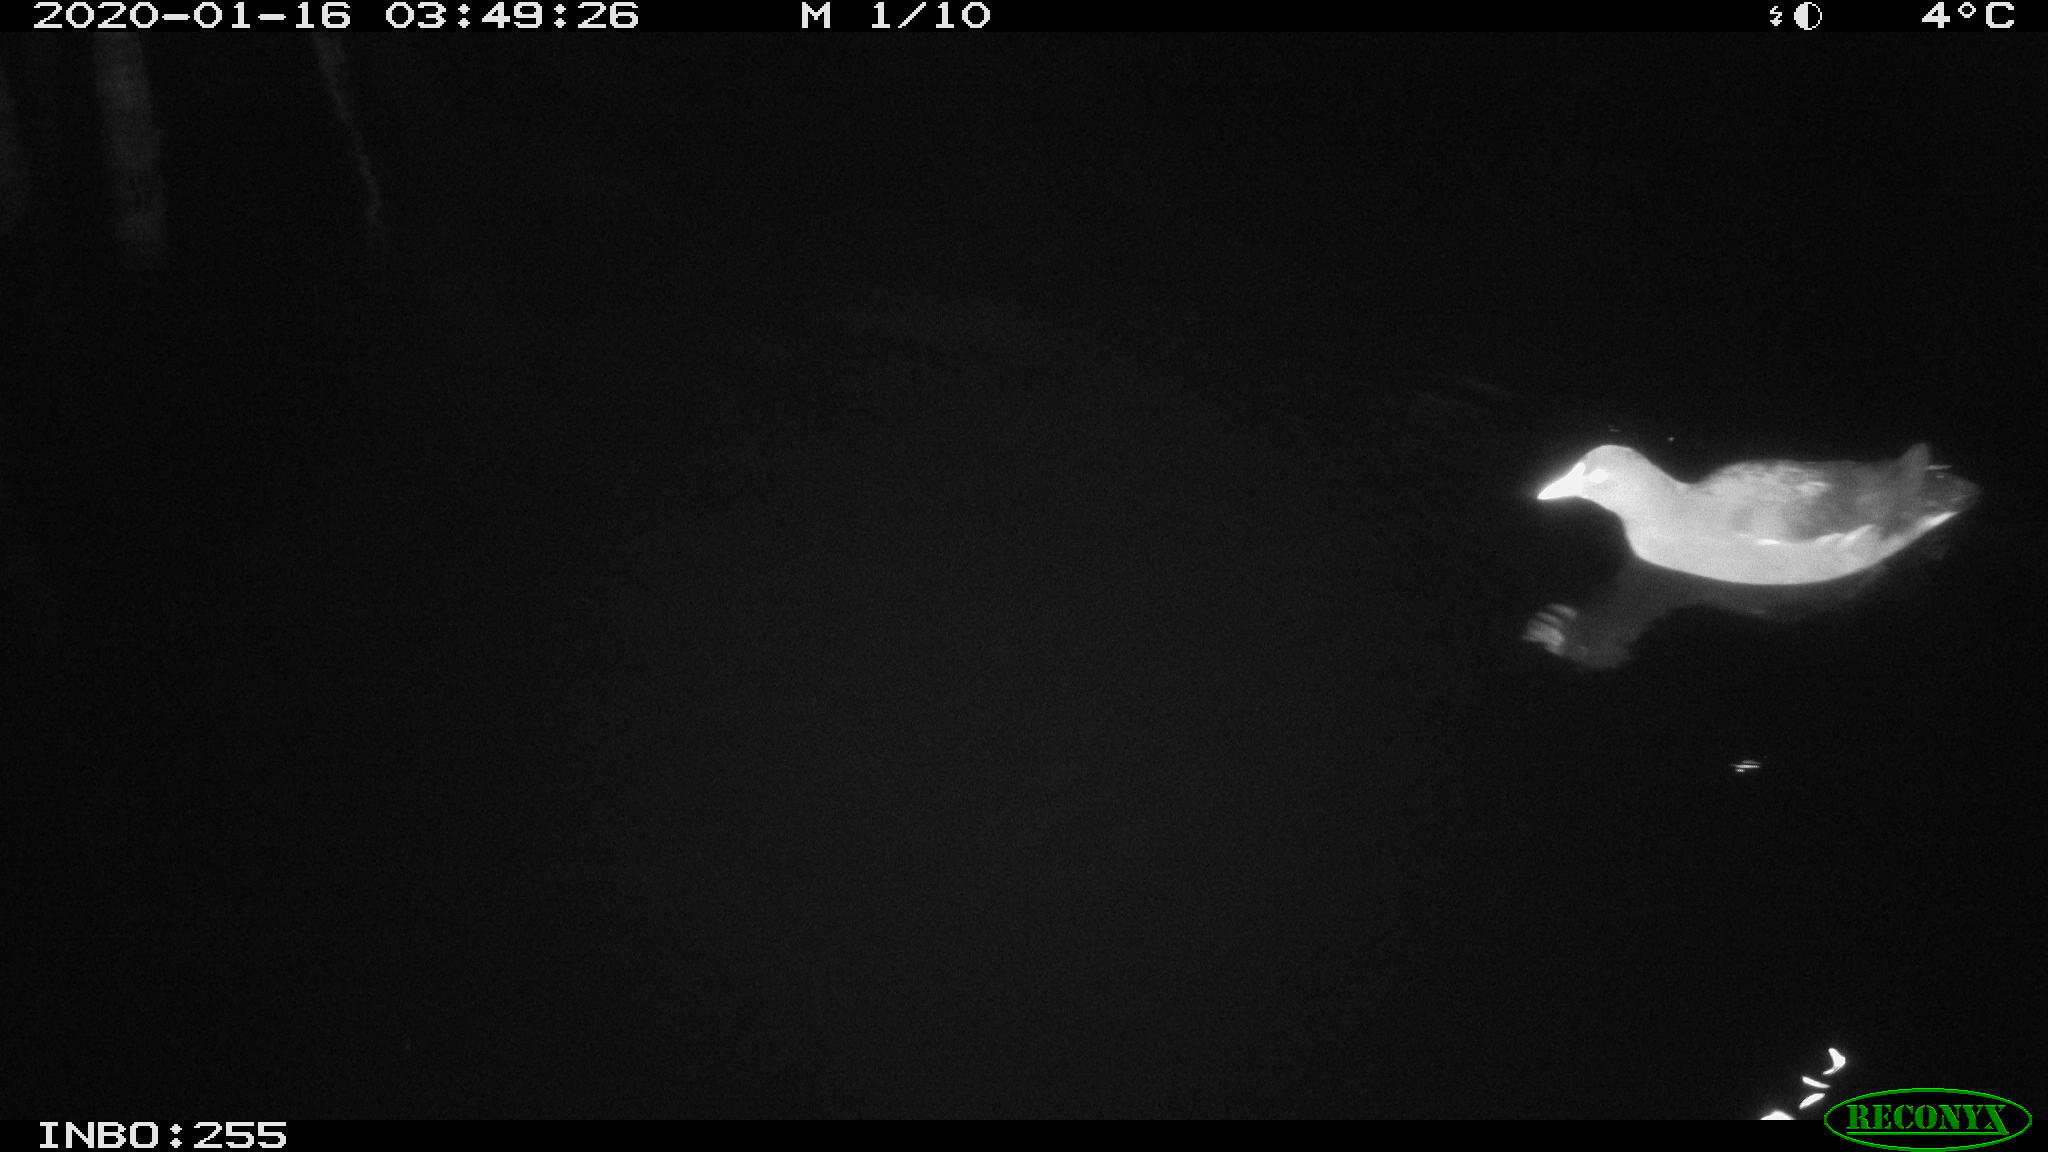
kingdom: Animalia
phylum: Chordata
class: Aves
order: Gruiformes
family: Rallidae
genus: Gallinula
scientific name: Gallinula chloropus
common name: Common moorhen
